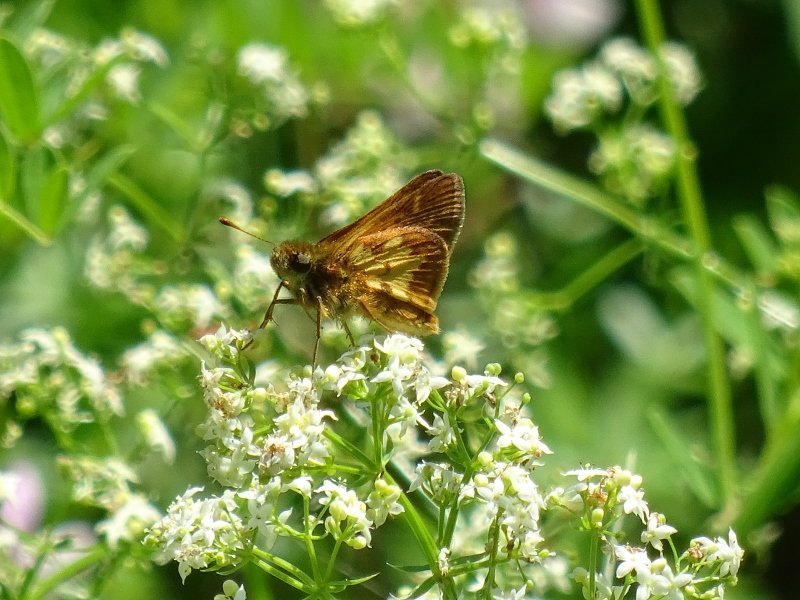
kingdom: Animalia
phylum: Arthropoda
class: Insecta
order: Lepidoptera
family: Hesperiidae
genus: Polites
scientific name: Polites coras
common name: Peck's Skipper
